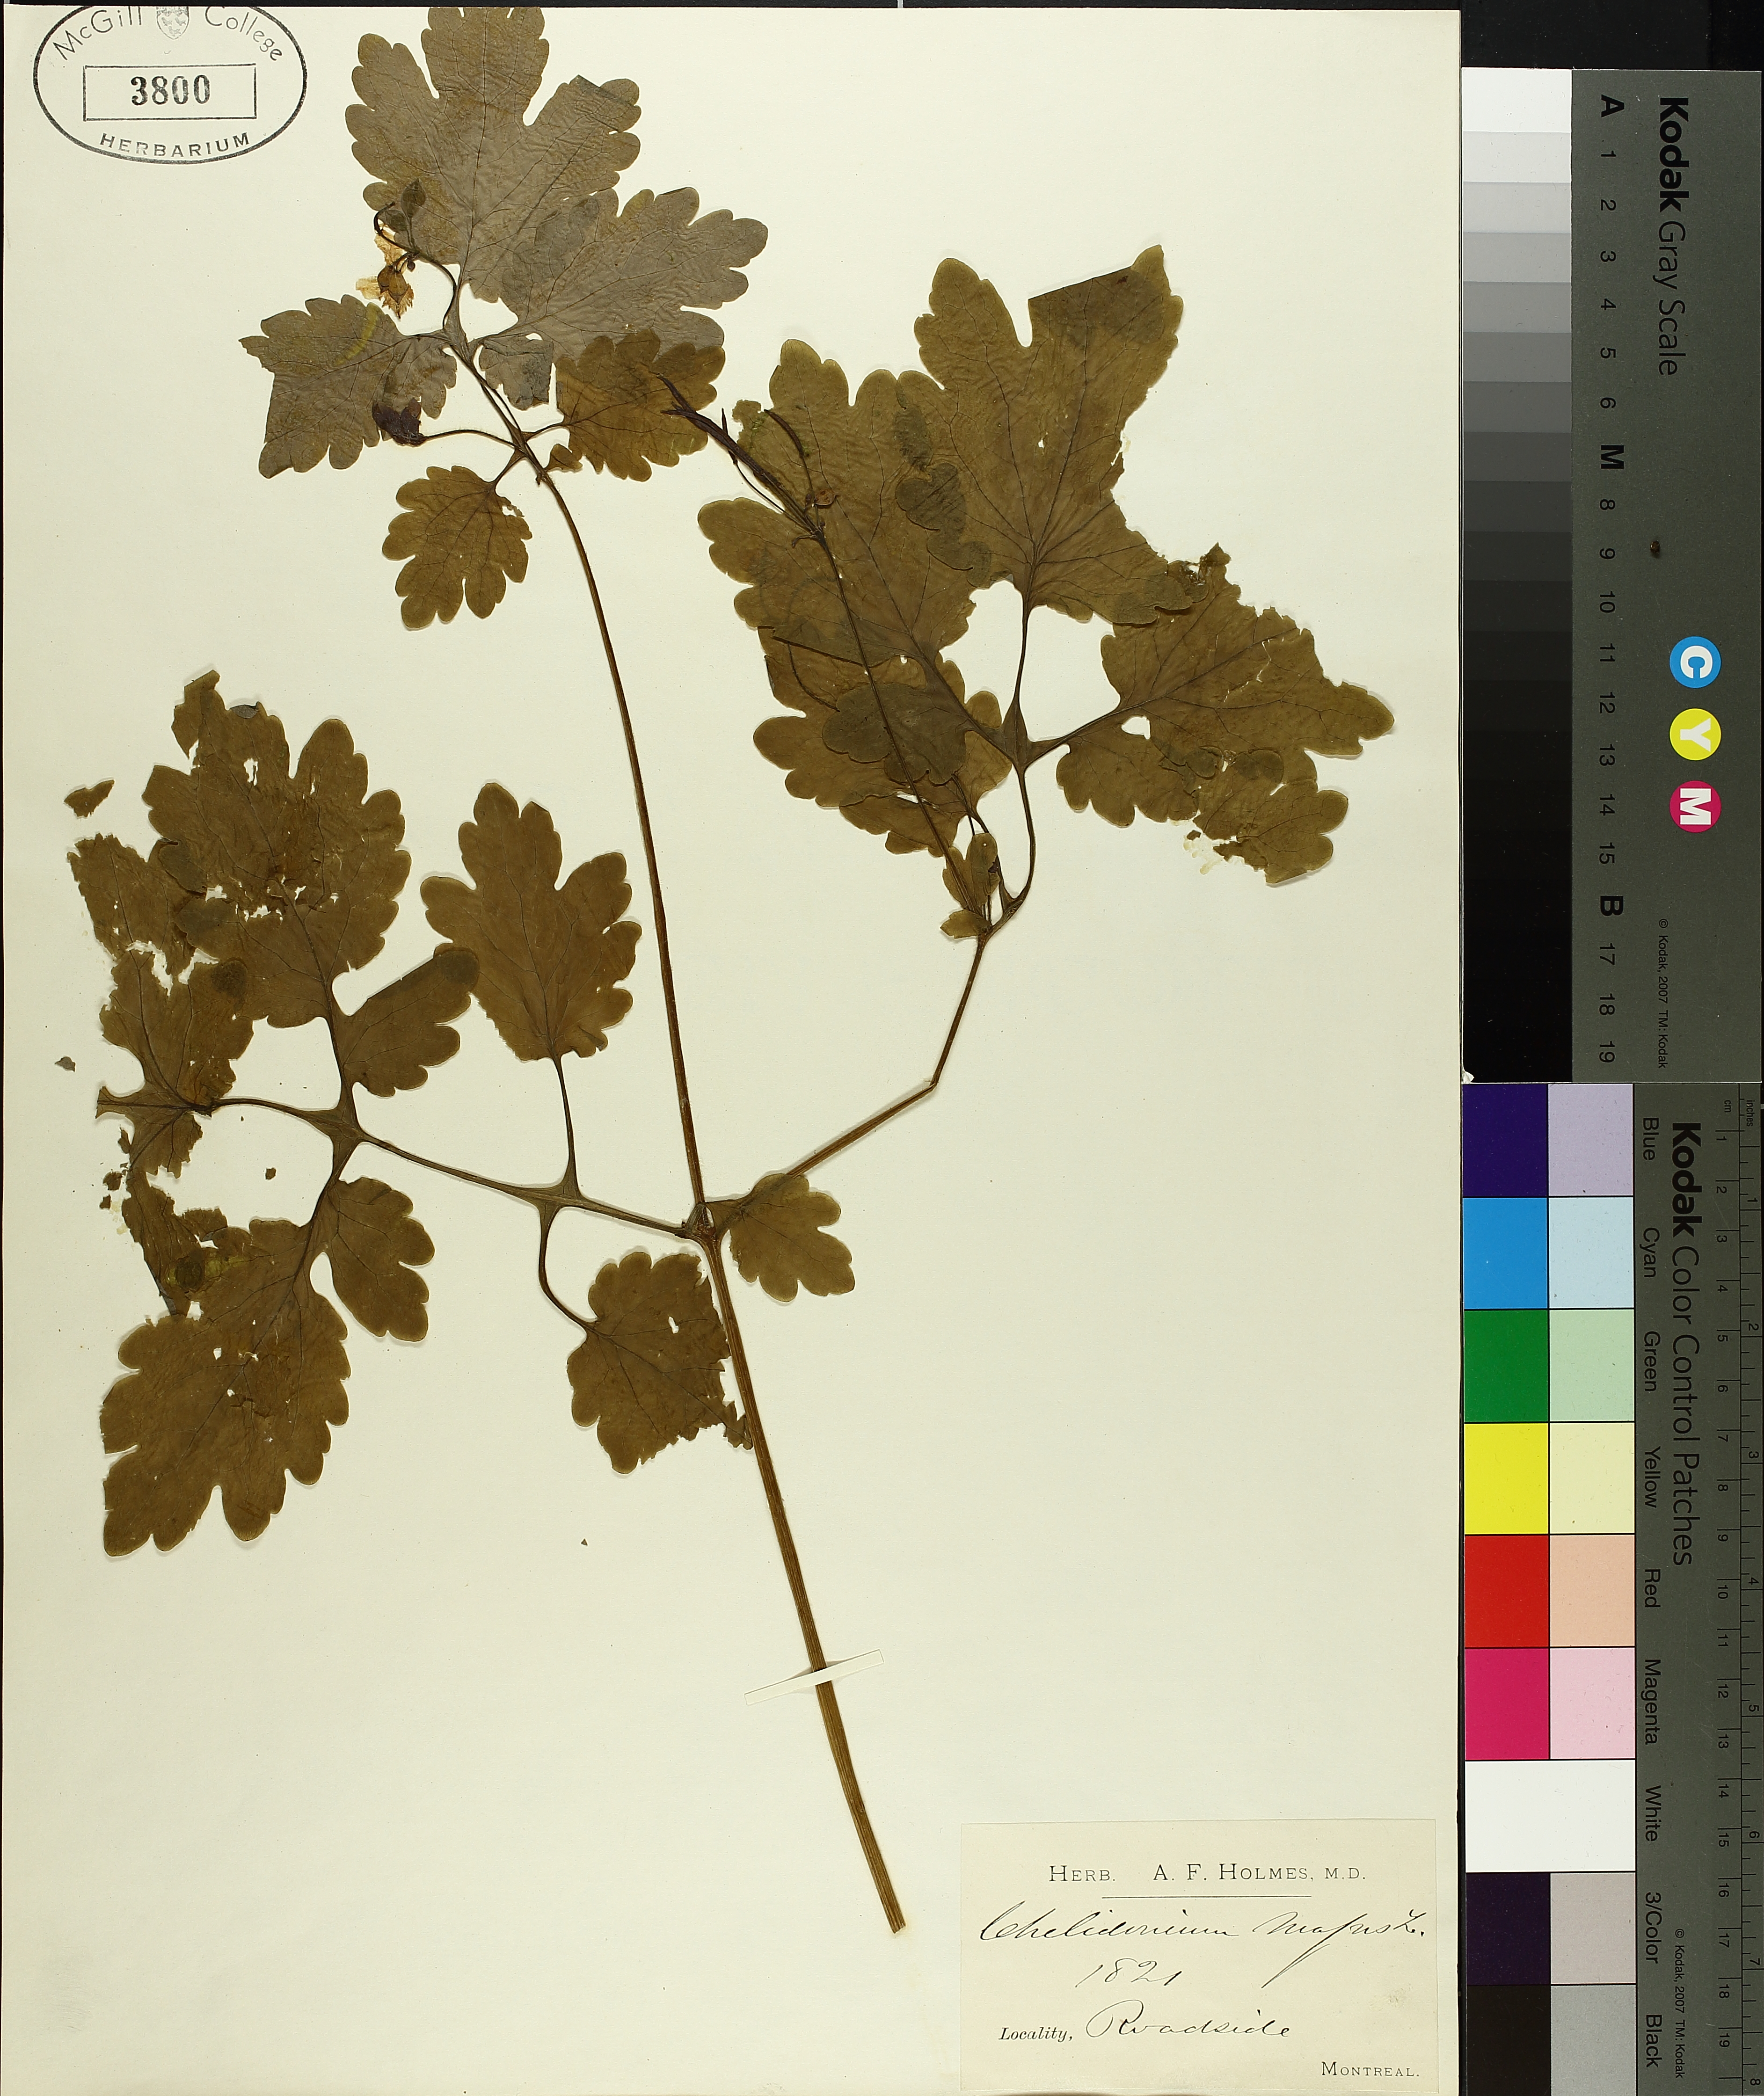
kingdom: Plantae
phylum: Tracheophyta
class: Magnoliopsida
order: Ranunculales
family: Papaveraceae
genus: Chelidonium
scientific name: Chelidonium majus
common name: Greater celandine
